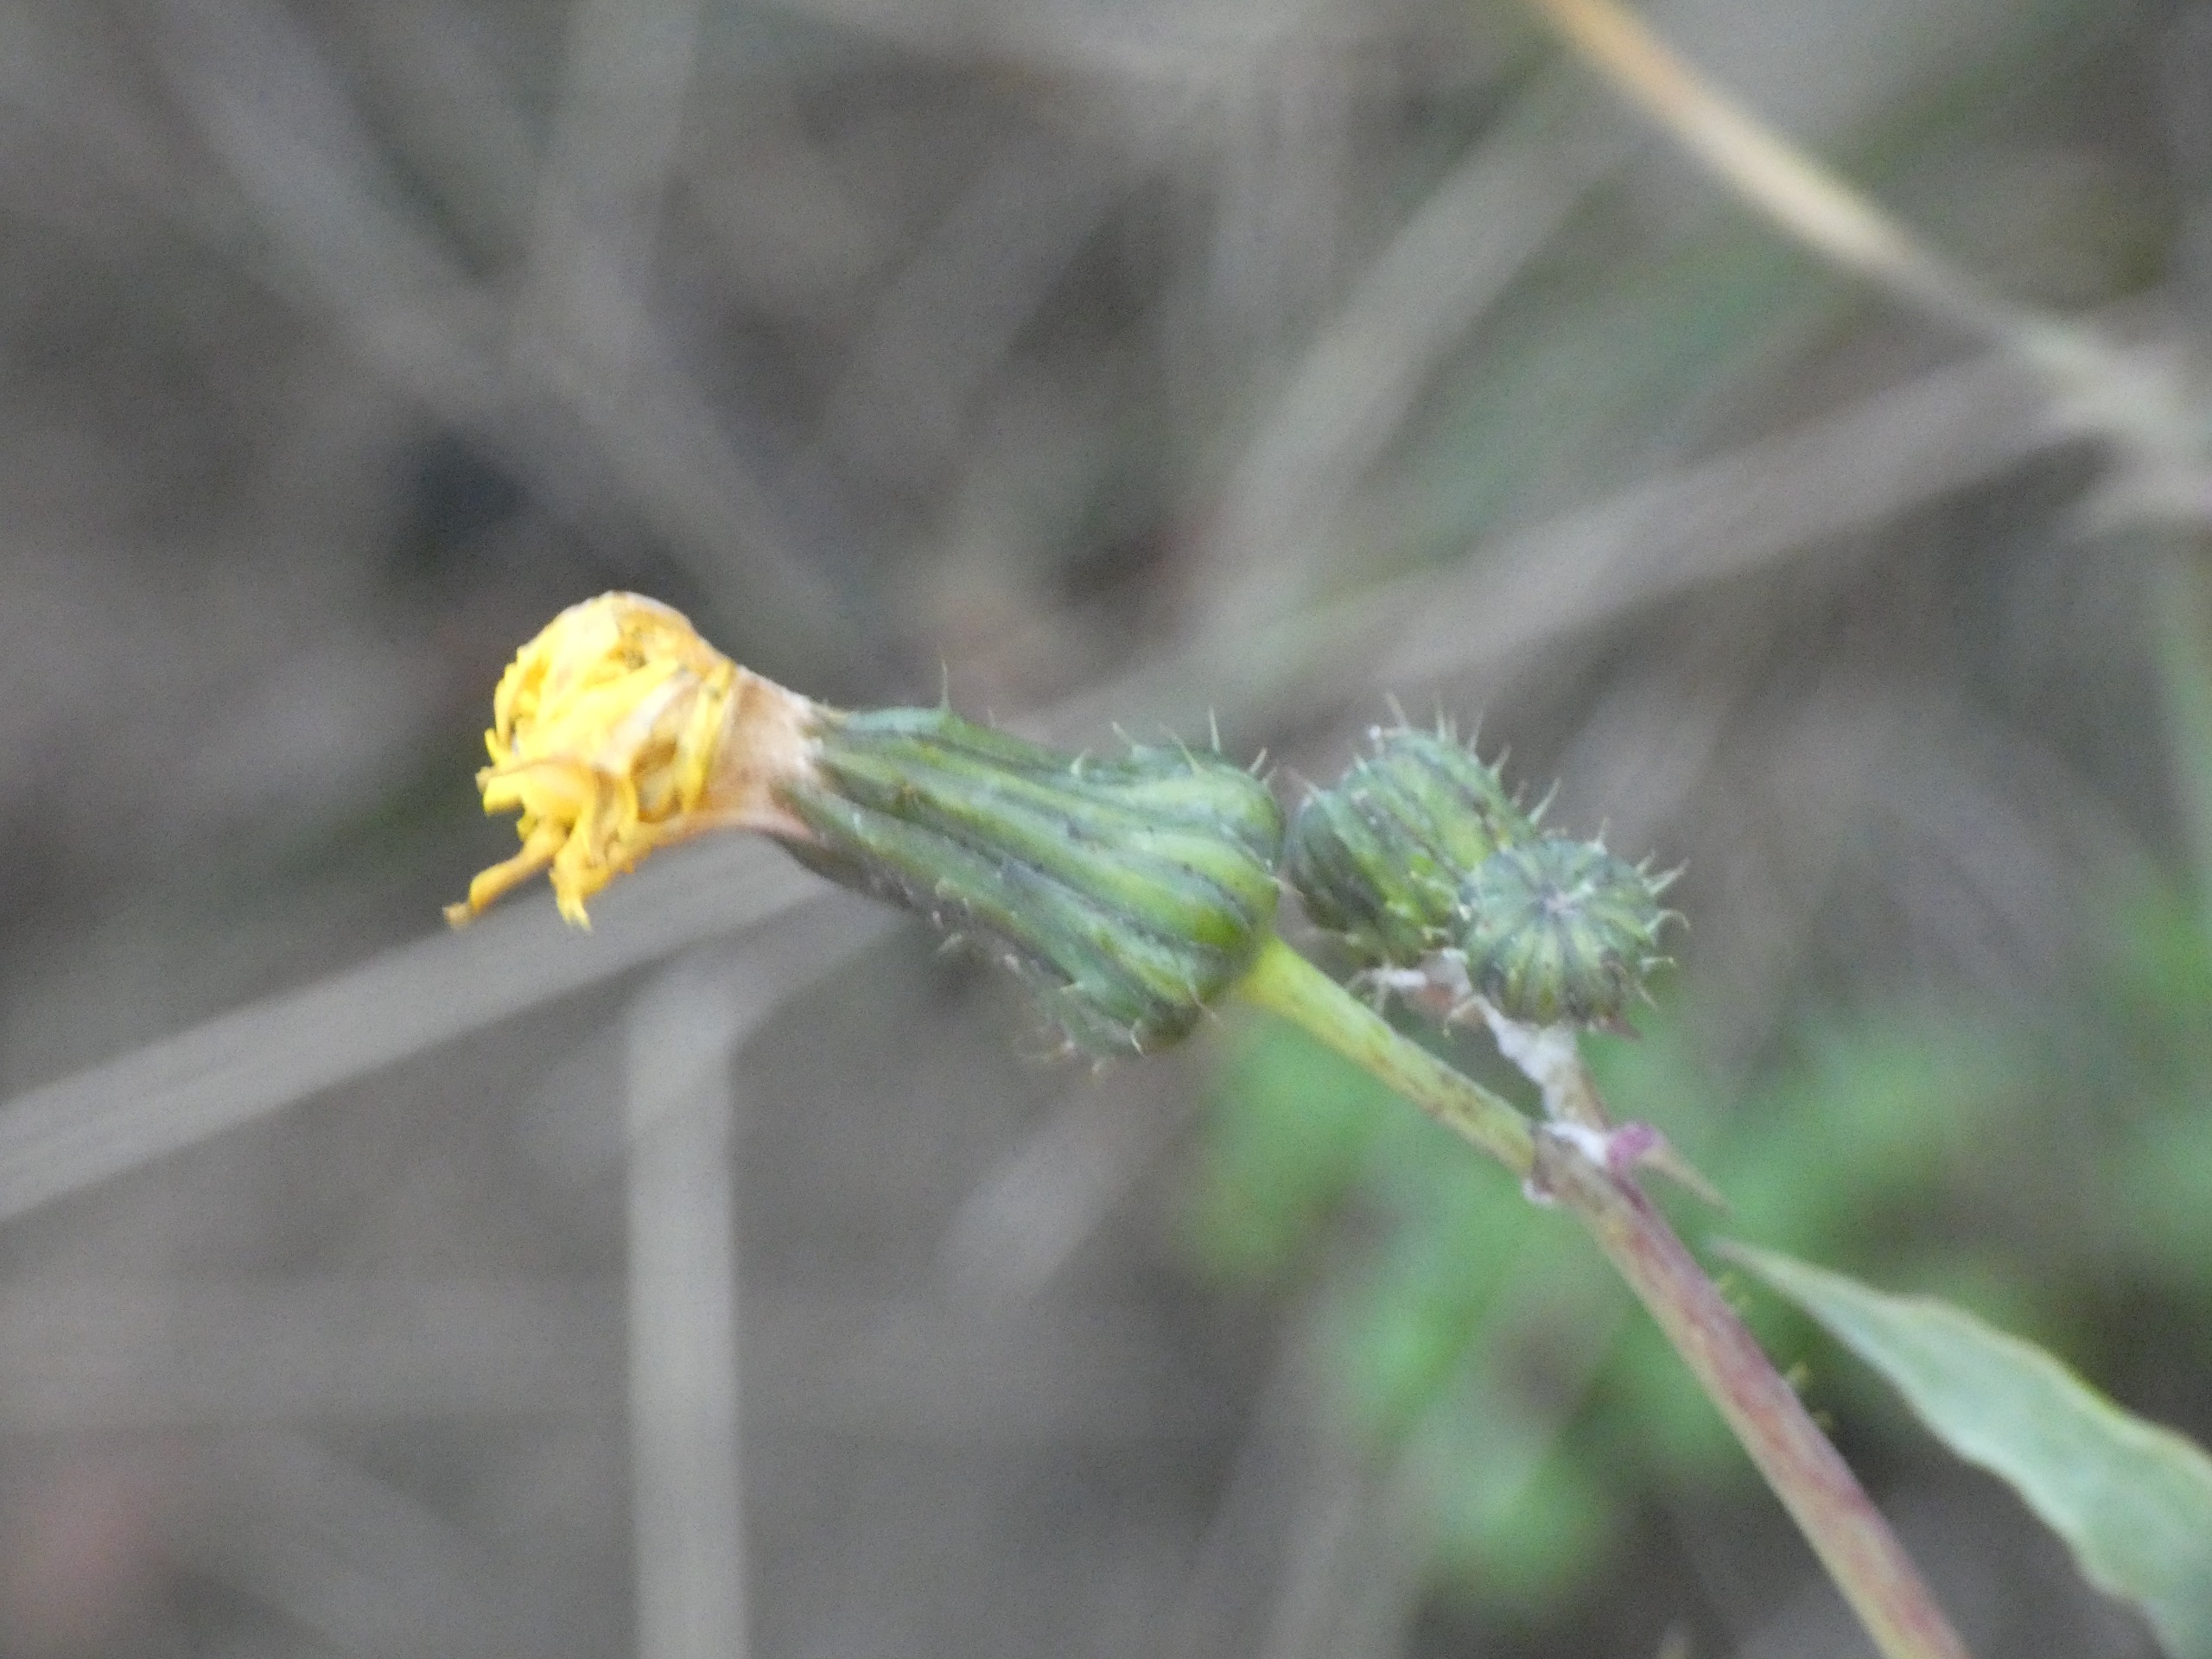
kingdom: Plantae
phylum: Tracheophyta
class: Magnoliopsida
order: Asterales
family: Asteraceae
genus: Sonchus
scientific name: Sonchus oleraceus
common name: Almindelig svinemælk
